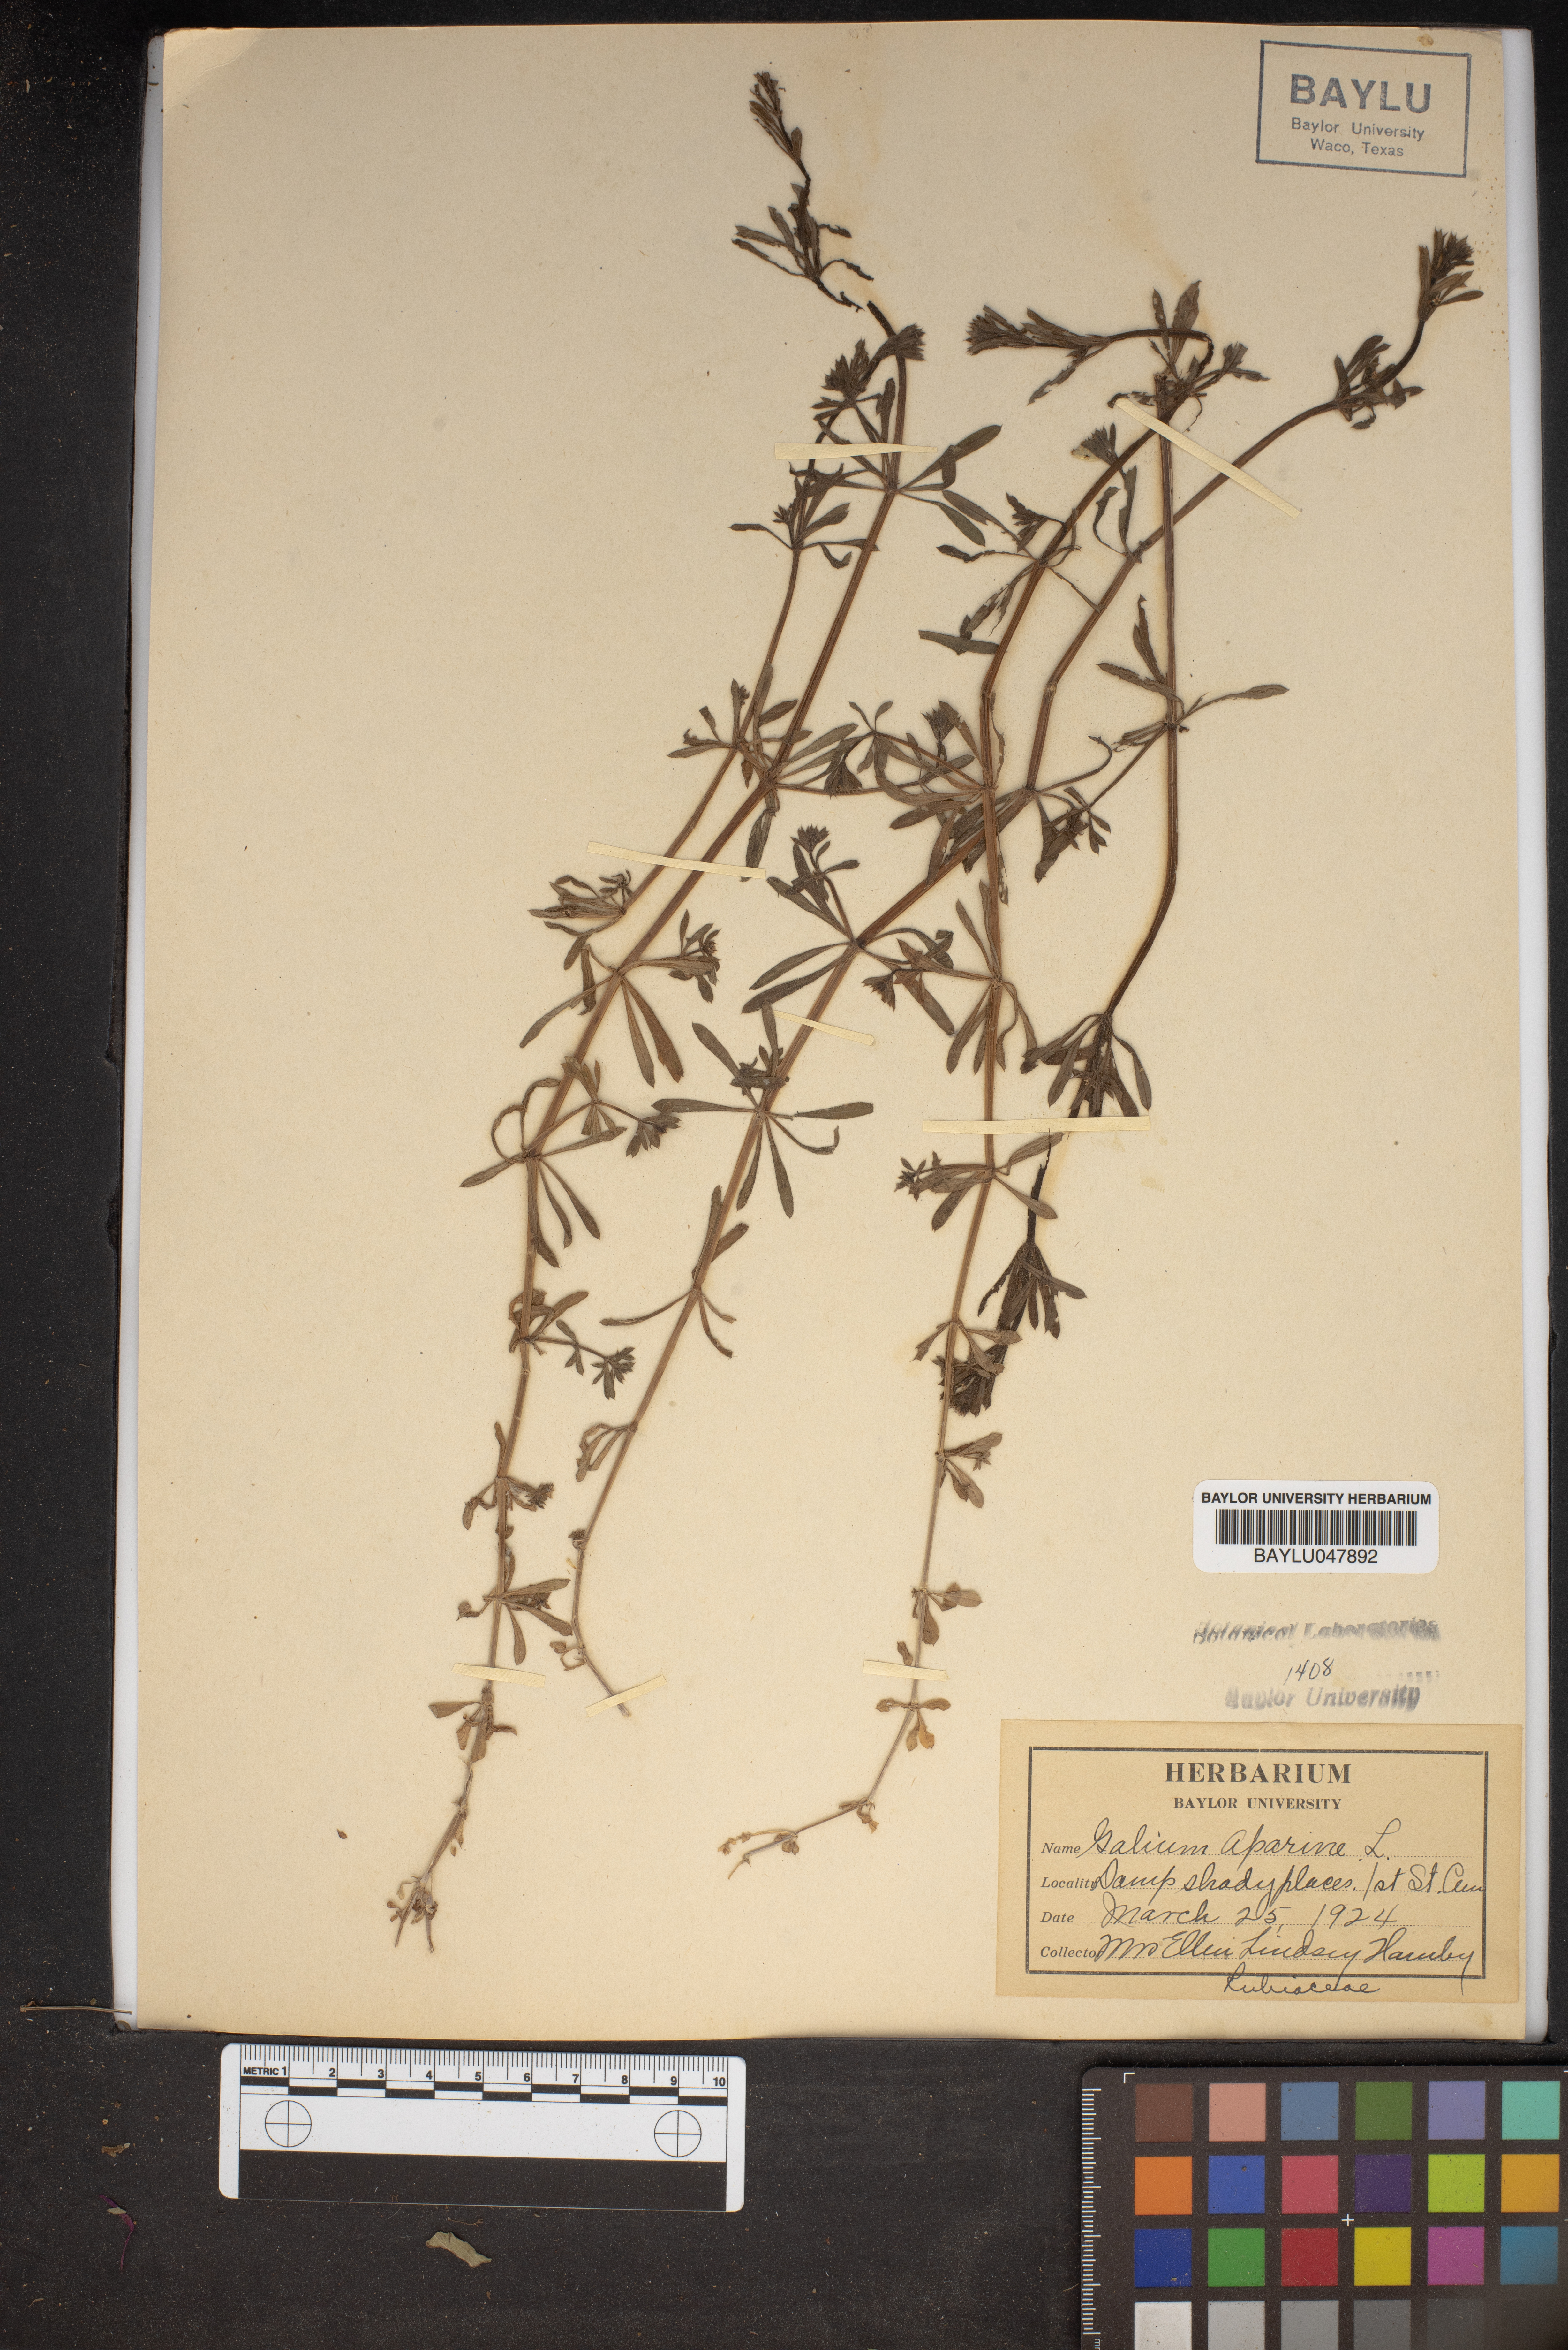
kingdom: Plantae
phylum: Tracheophyta
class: Magnoliopsida
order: Gentianales
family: Rubiaceae
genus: Galium
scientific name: Galium aparine
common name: Cleavers
